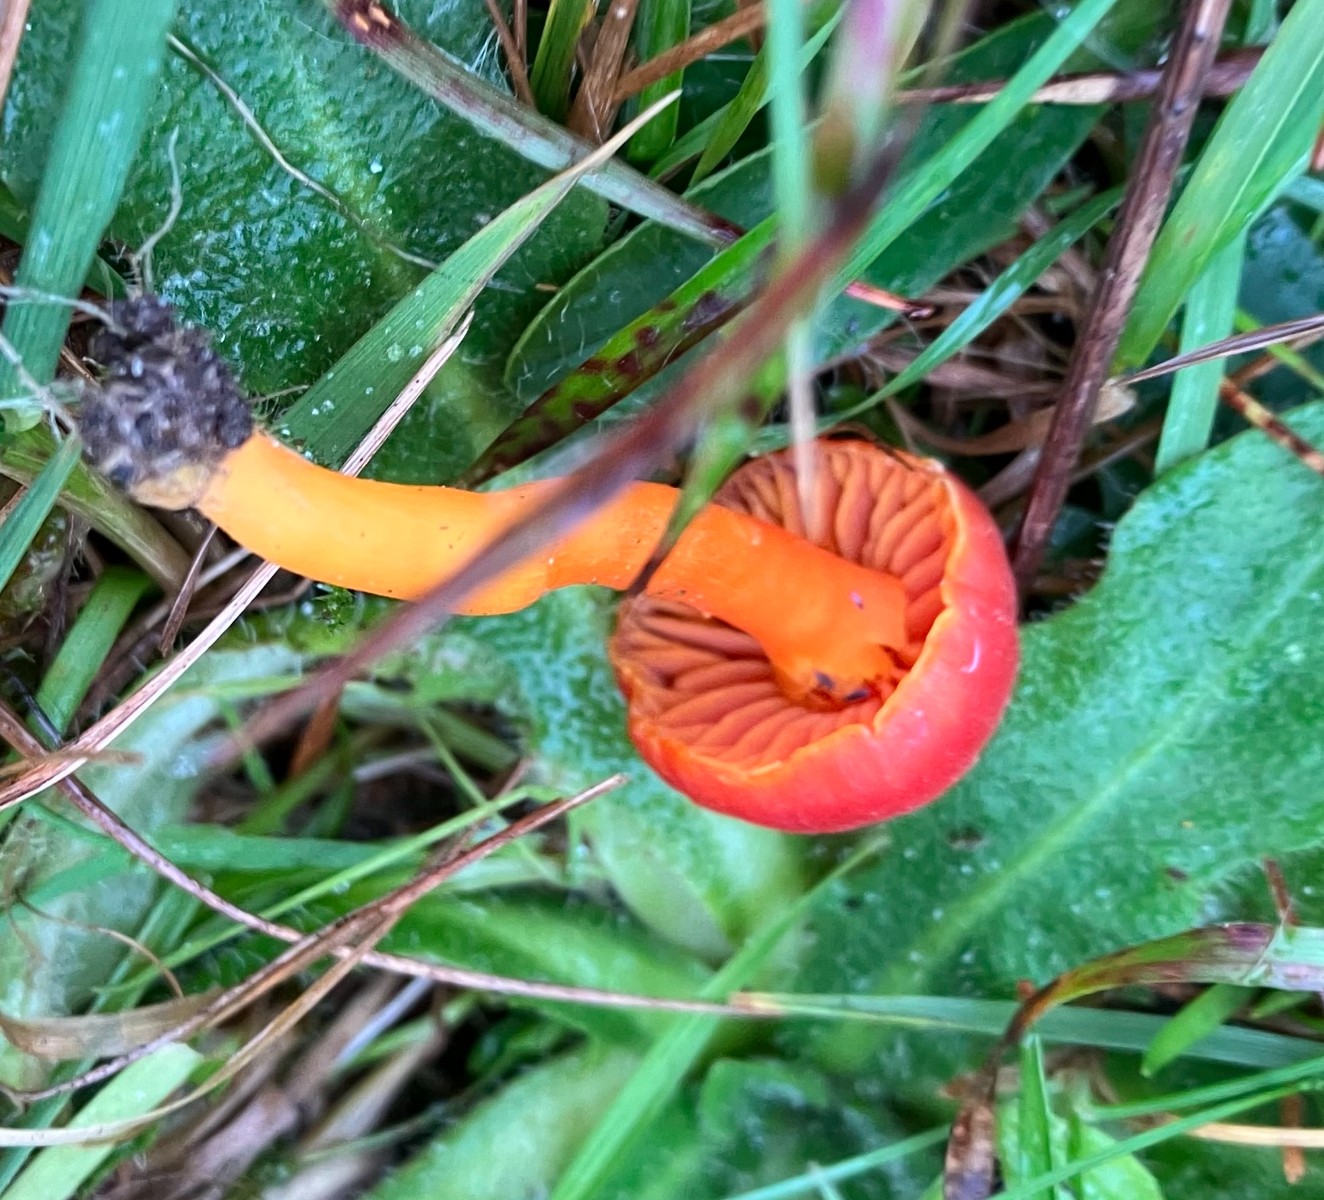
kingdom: Fungi
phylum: Basidiomycota
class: Agaricomycetes
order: Agaricales
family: Hygrophoraceae
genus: Hygrocybe
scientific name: Hygrocybe miniata
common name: mønje-vokshat
